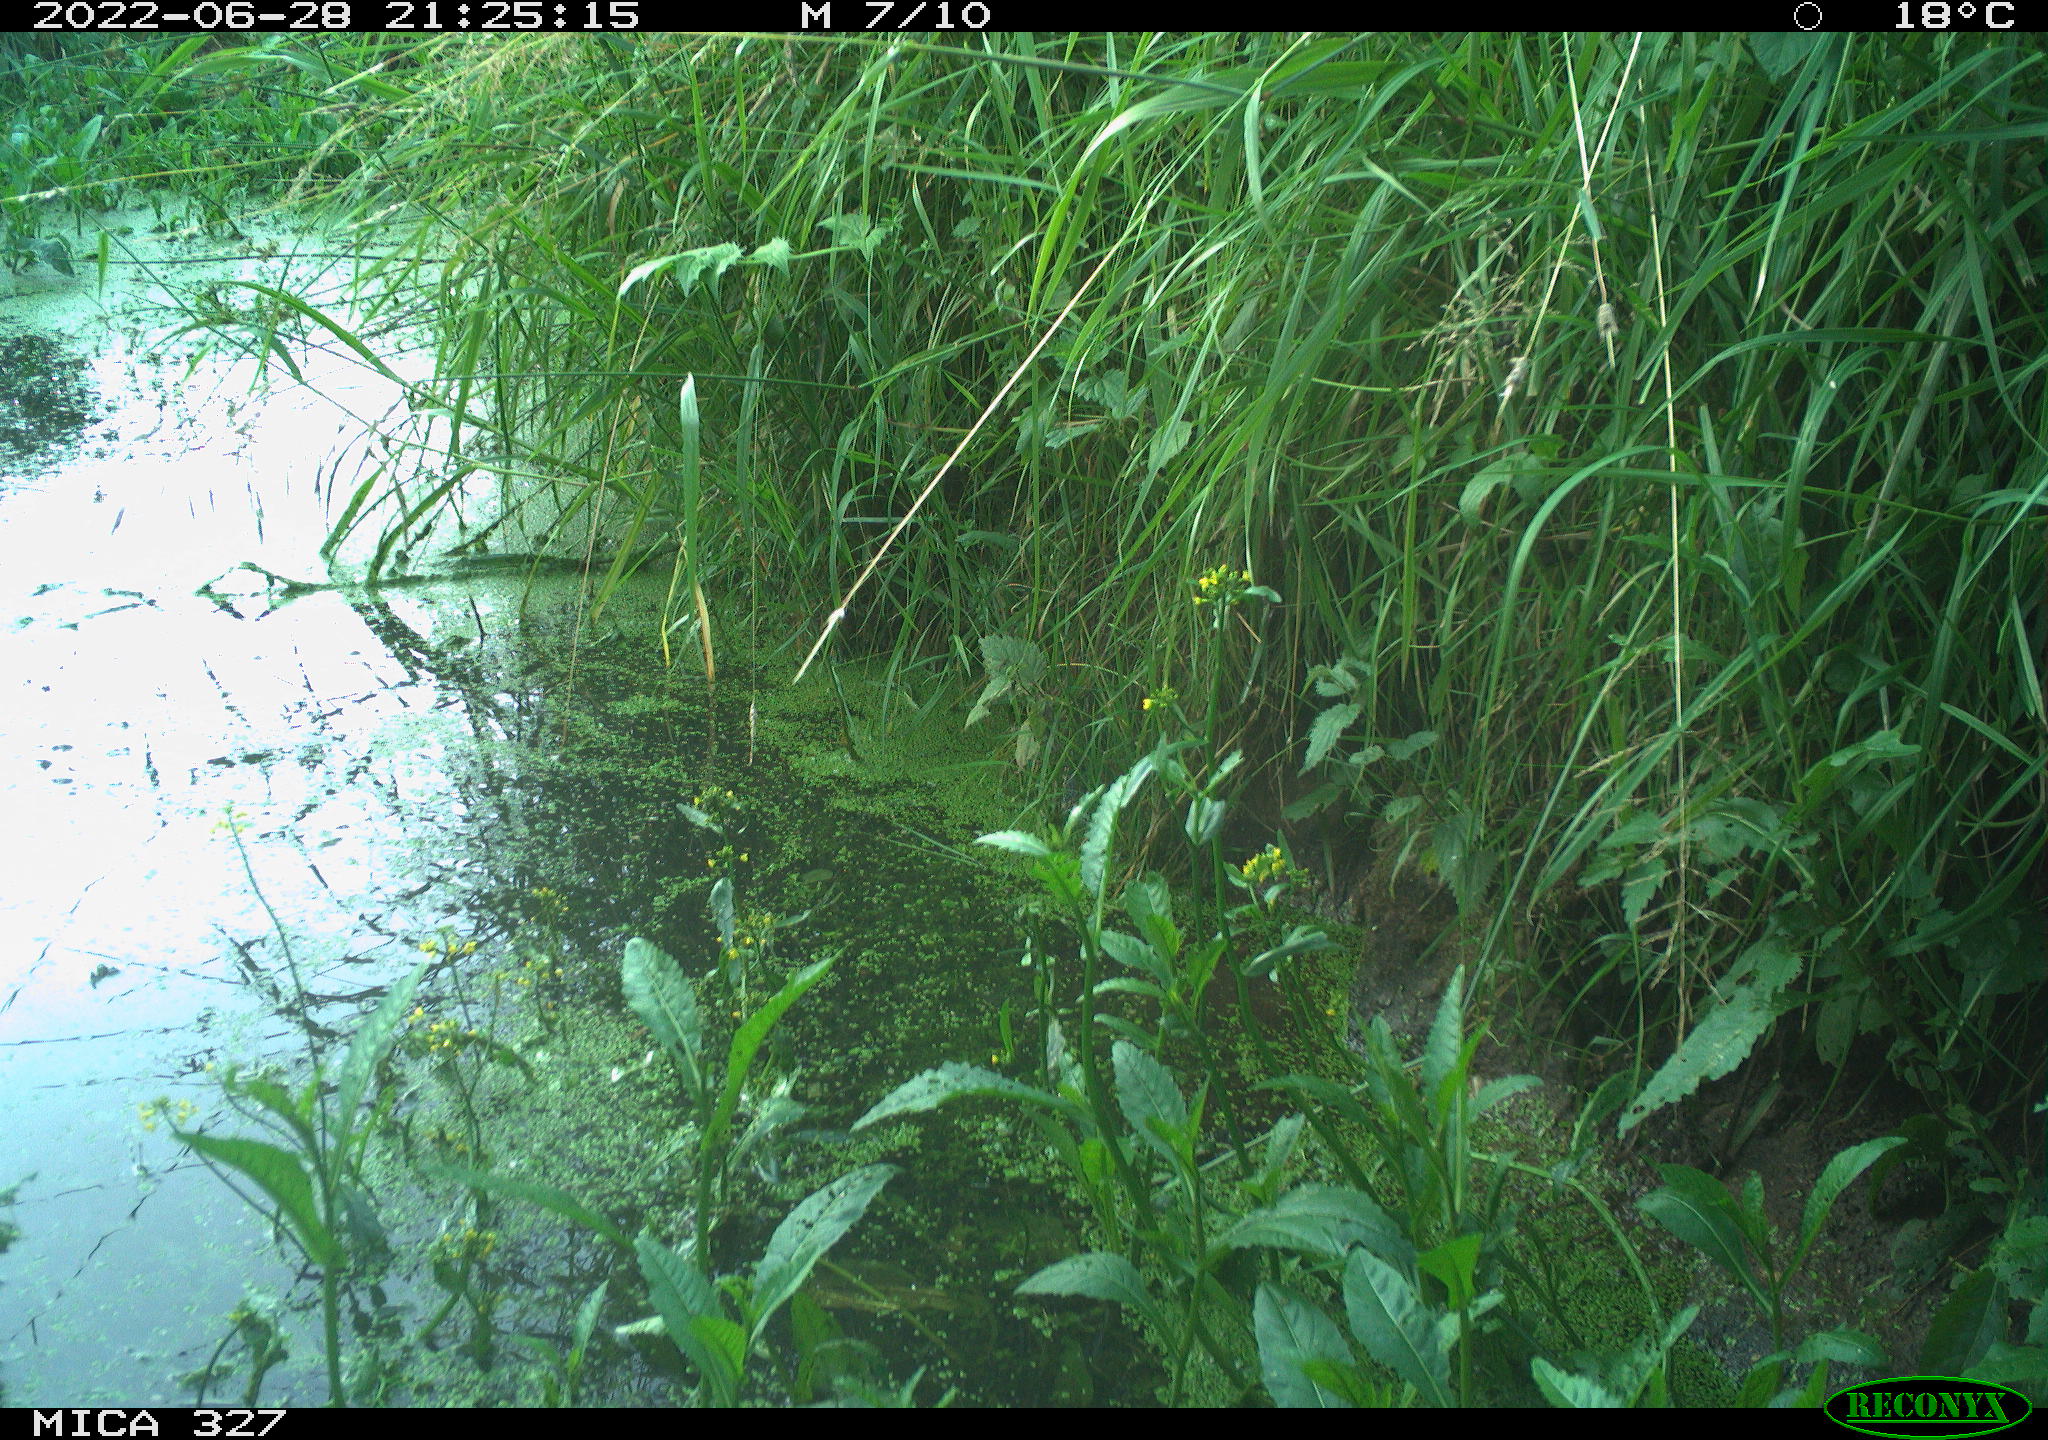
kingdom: Animalia
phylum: Chordata
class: Mammalia
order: Rodentia
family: Muridae
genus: Rattus
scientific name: Rattus norvegicus
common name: Brown rat
